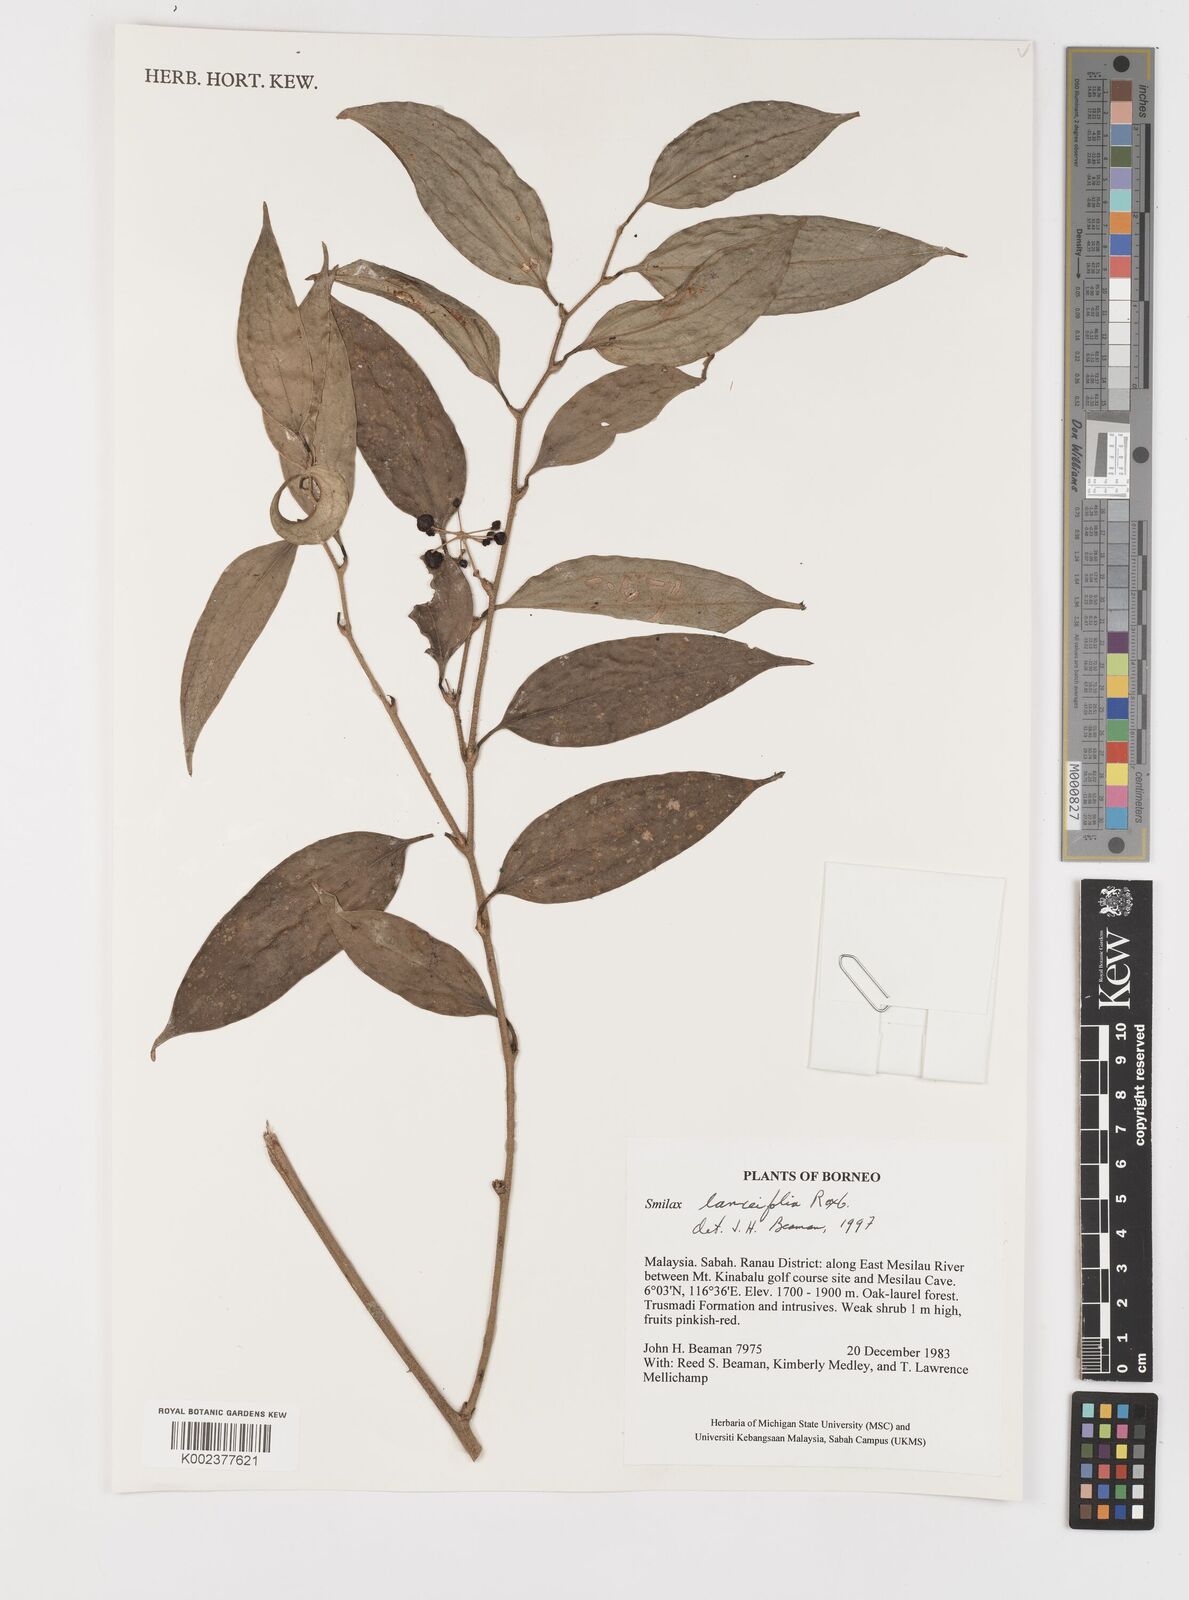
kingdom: Plantae
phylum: Tracheophyta
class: Liliopsida
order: Liliales
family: Smilacaceae
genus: Smilax
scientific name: Smilax lanceifolia
